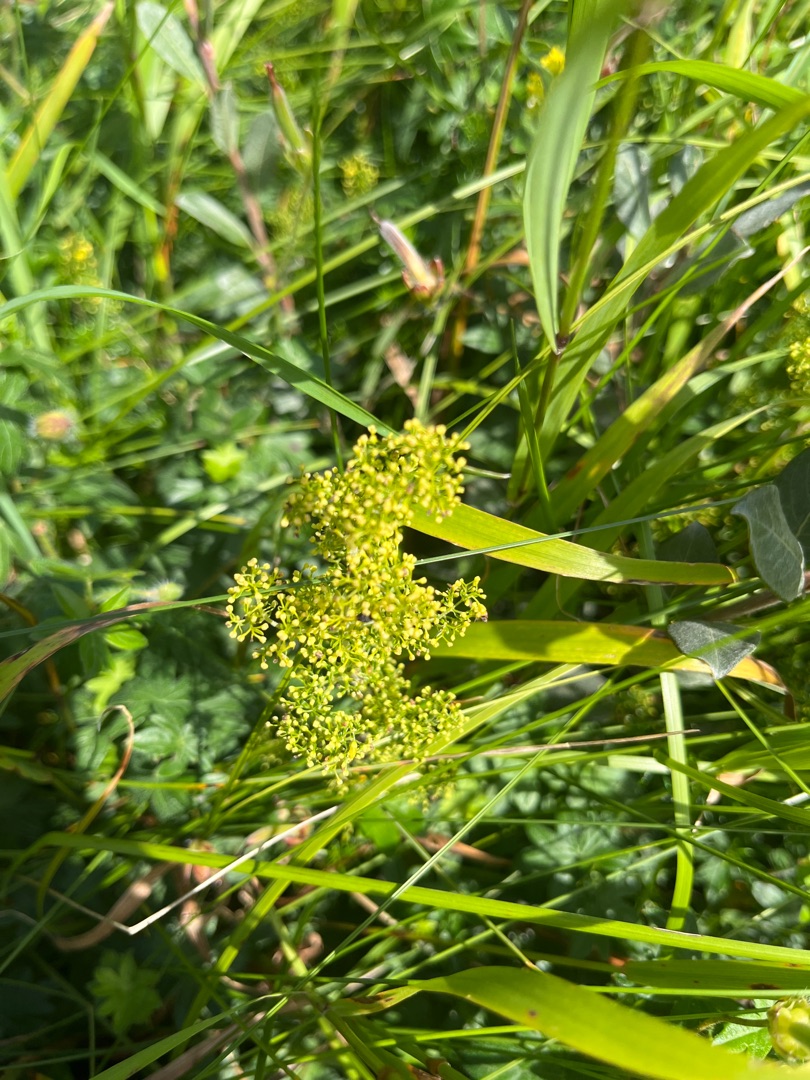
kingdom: Plantae
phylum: Tracheophyta
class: Magnoliopsida
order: Gentianales
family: Rubiaceae
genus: Galium
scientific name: Galium verum
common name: Gul snerre
